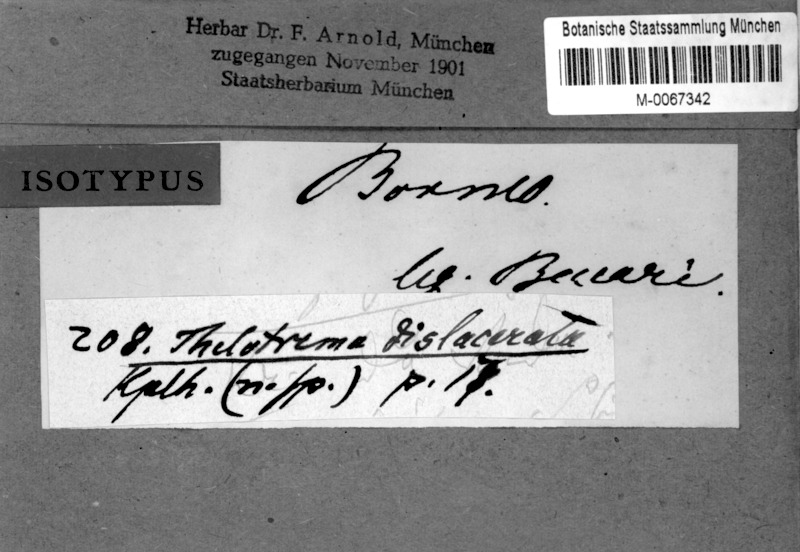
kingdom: Fungi
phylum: Ascomycota
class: Lecanoromycetes
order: Ostropales
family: Graphidaceae
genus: Thelotrema
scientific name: Thelotrema dislaceratum
